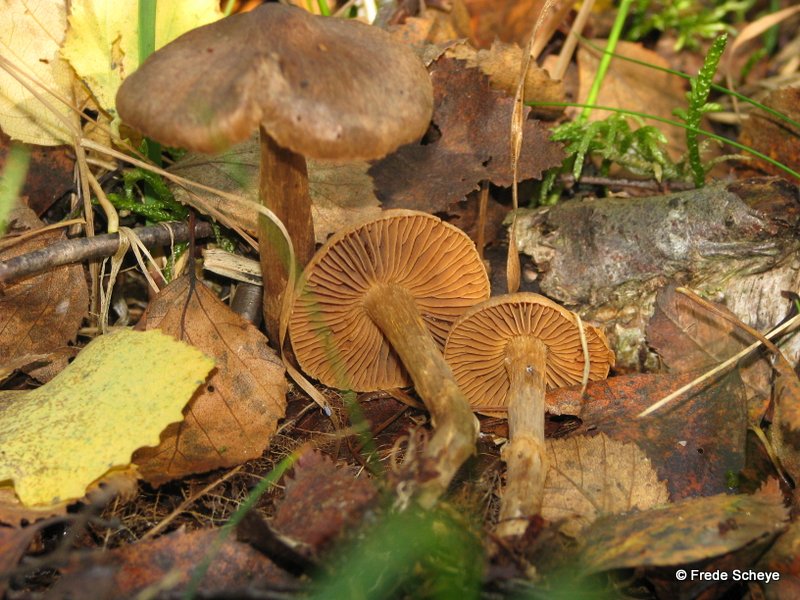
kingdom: Fungi
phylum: Basidiomycota
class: Agaricomycetes
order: Agaricales
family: Cortinariaceae
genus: Cortinarius
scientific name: Cortinarius raphanoides
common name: ræddike-slørhat
